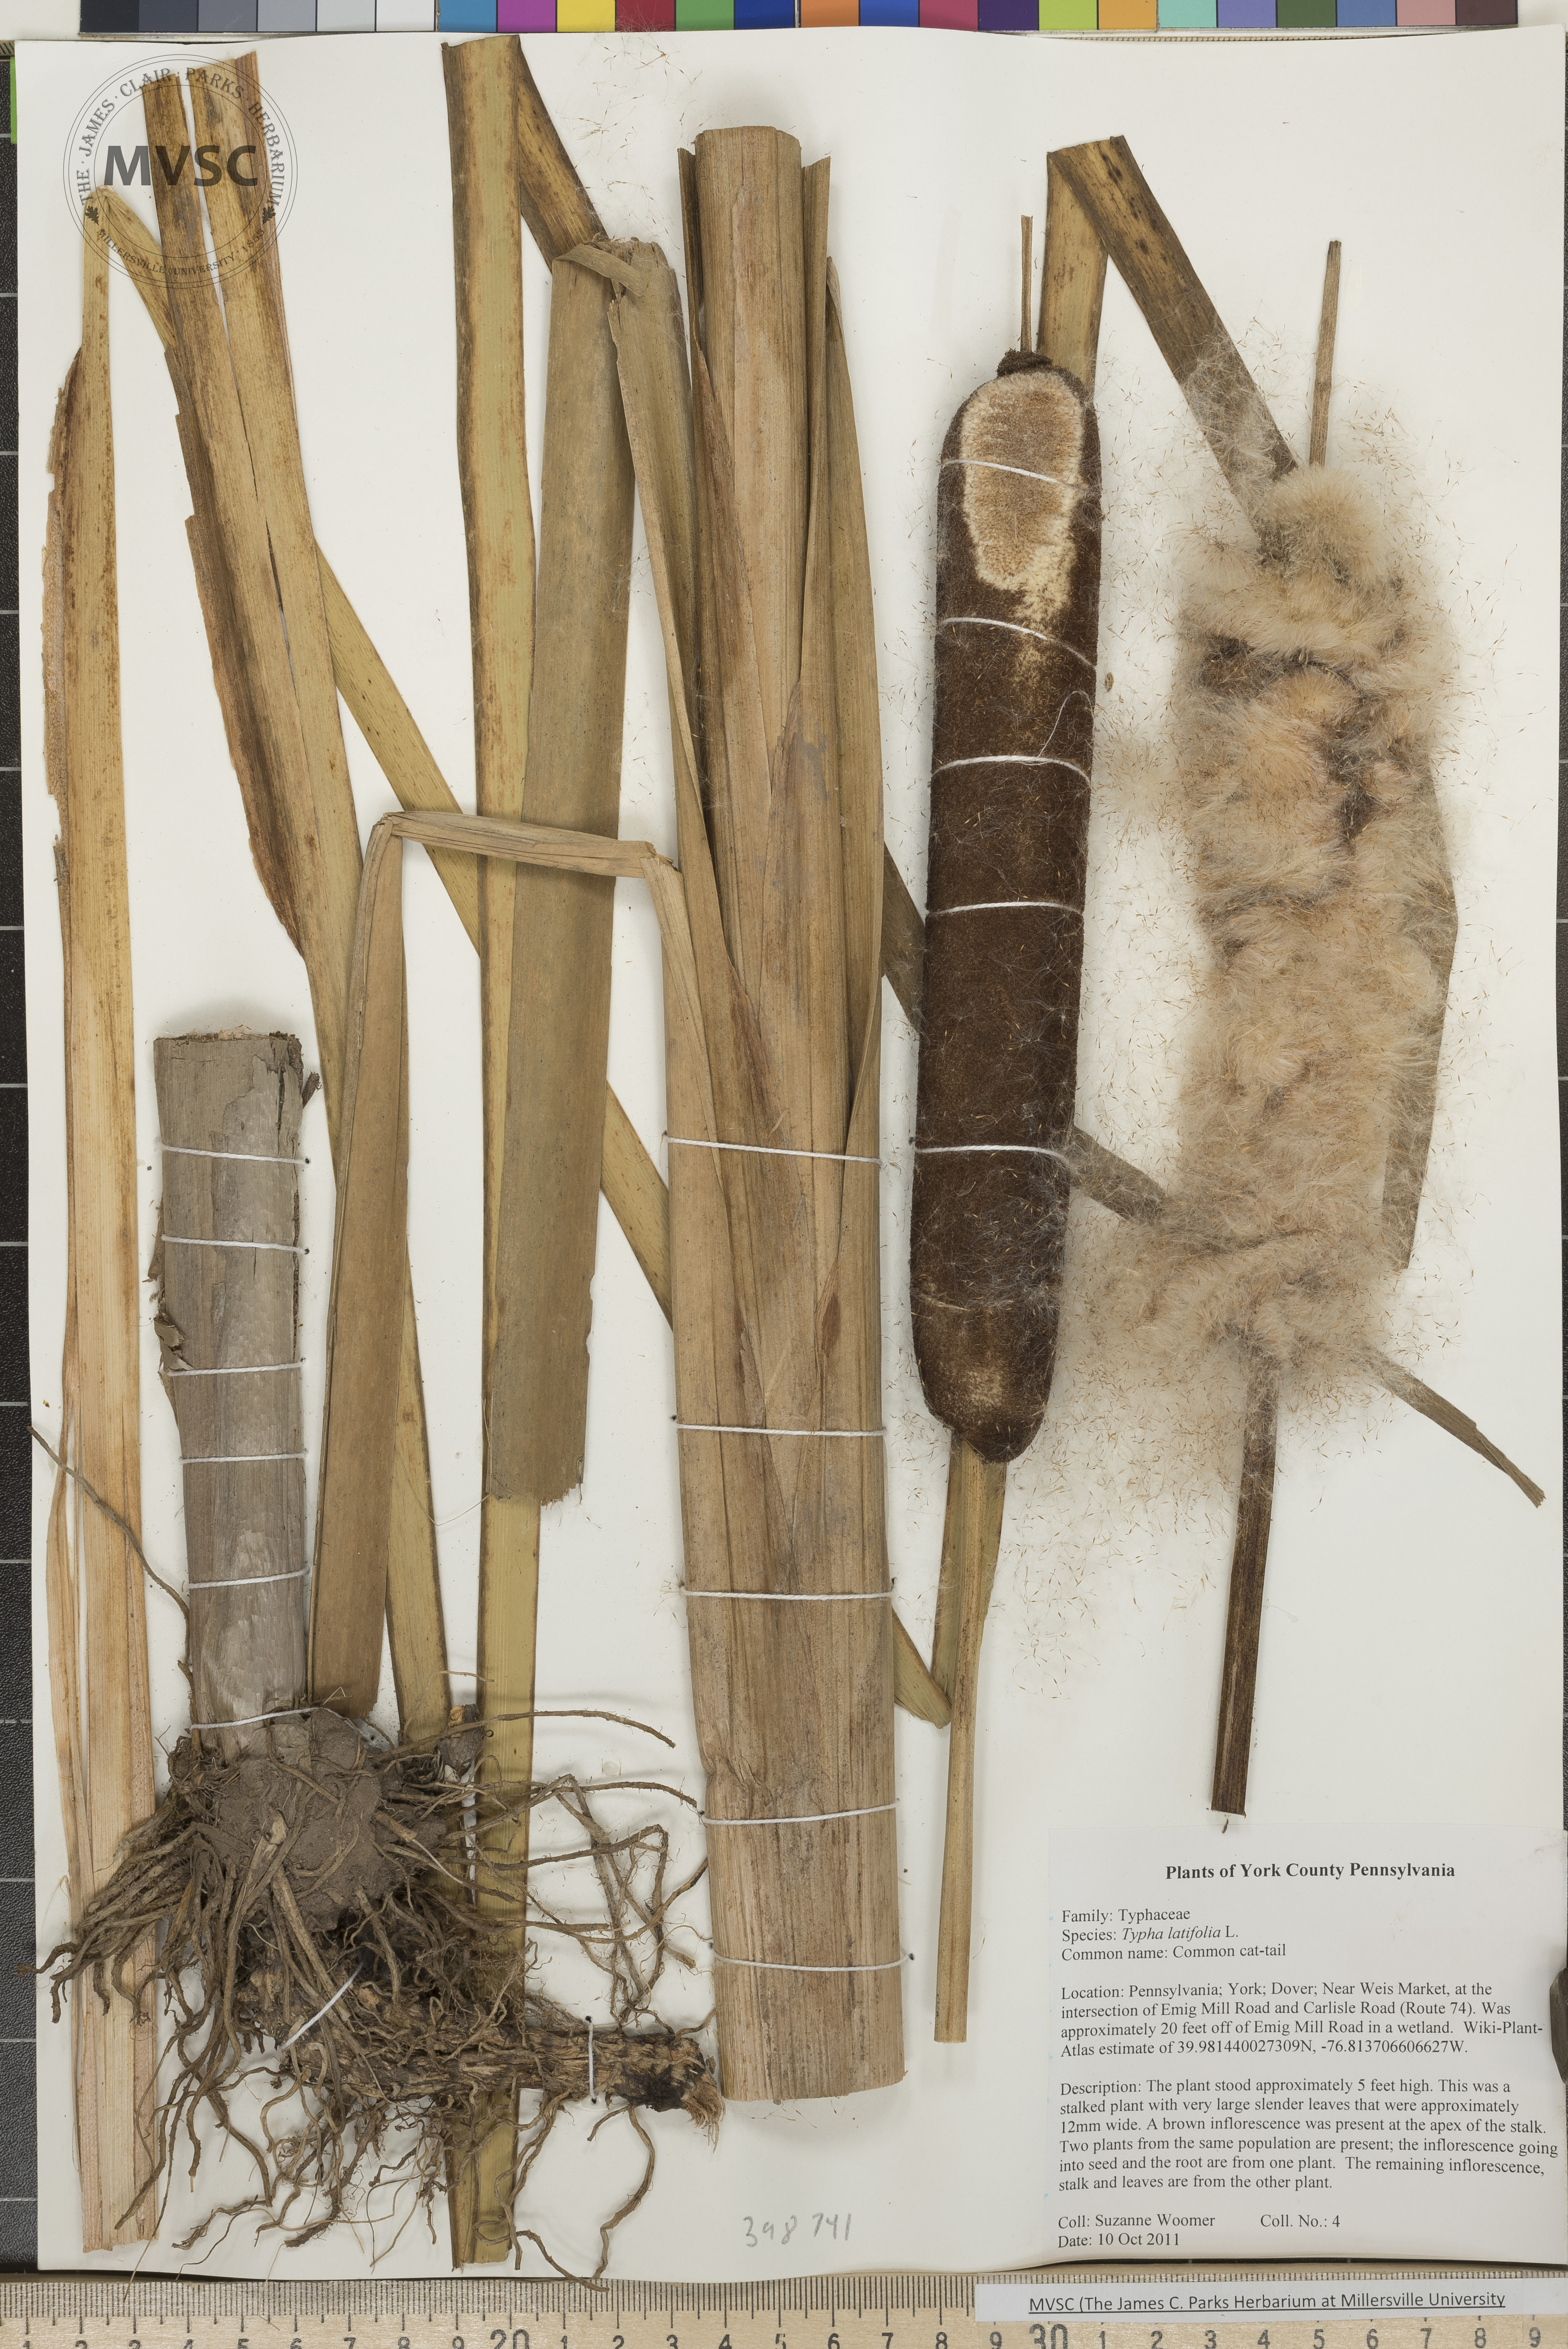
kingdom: Plantae
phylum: Tracheophyta
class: Liliopsida
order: Poales
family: Typhaceae
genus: Typha
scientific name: Typha latifolia
